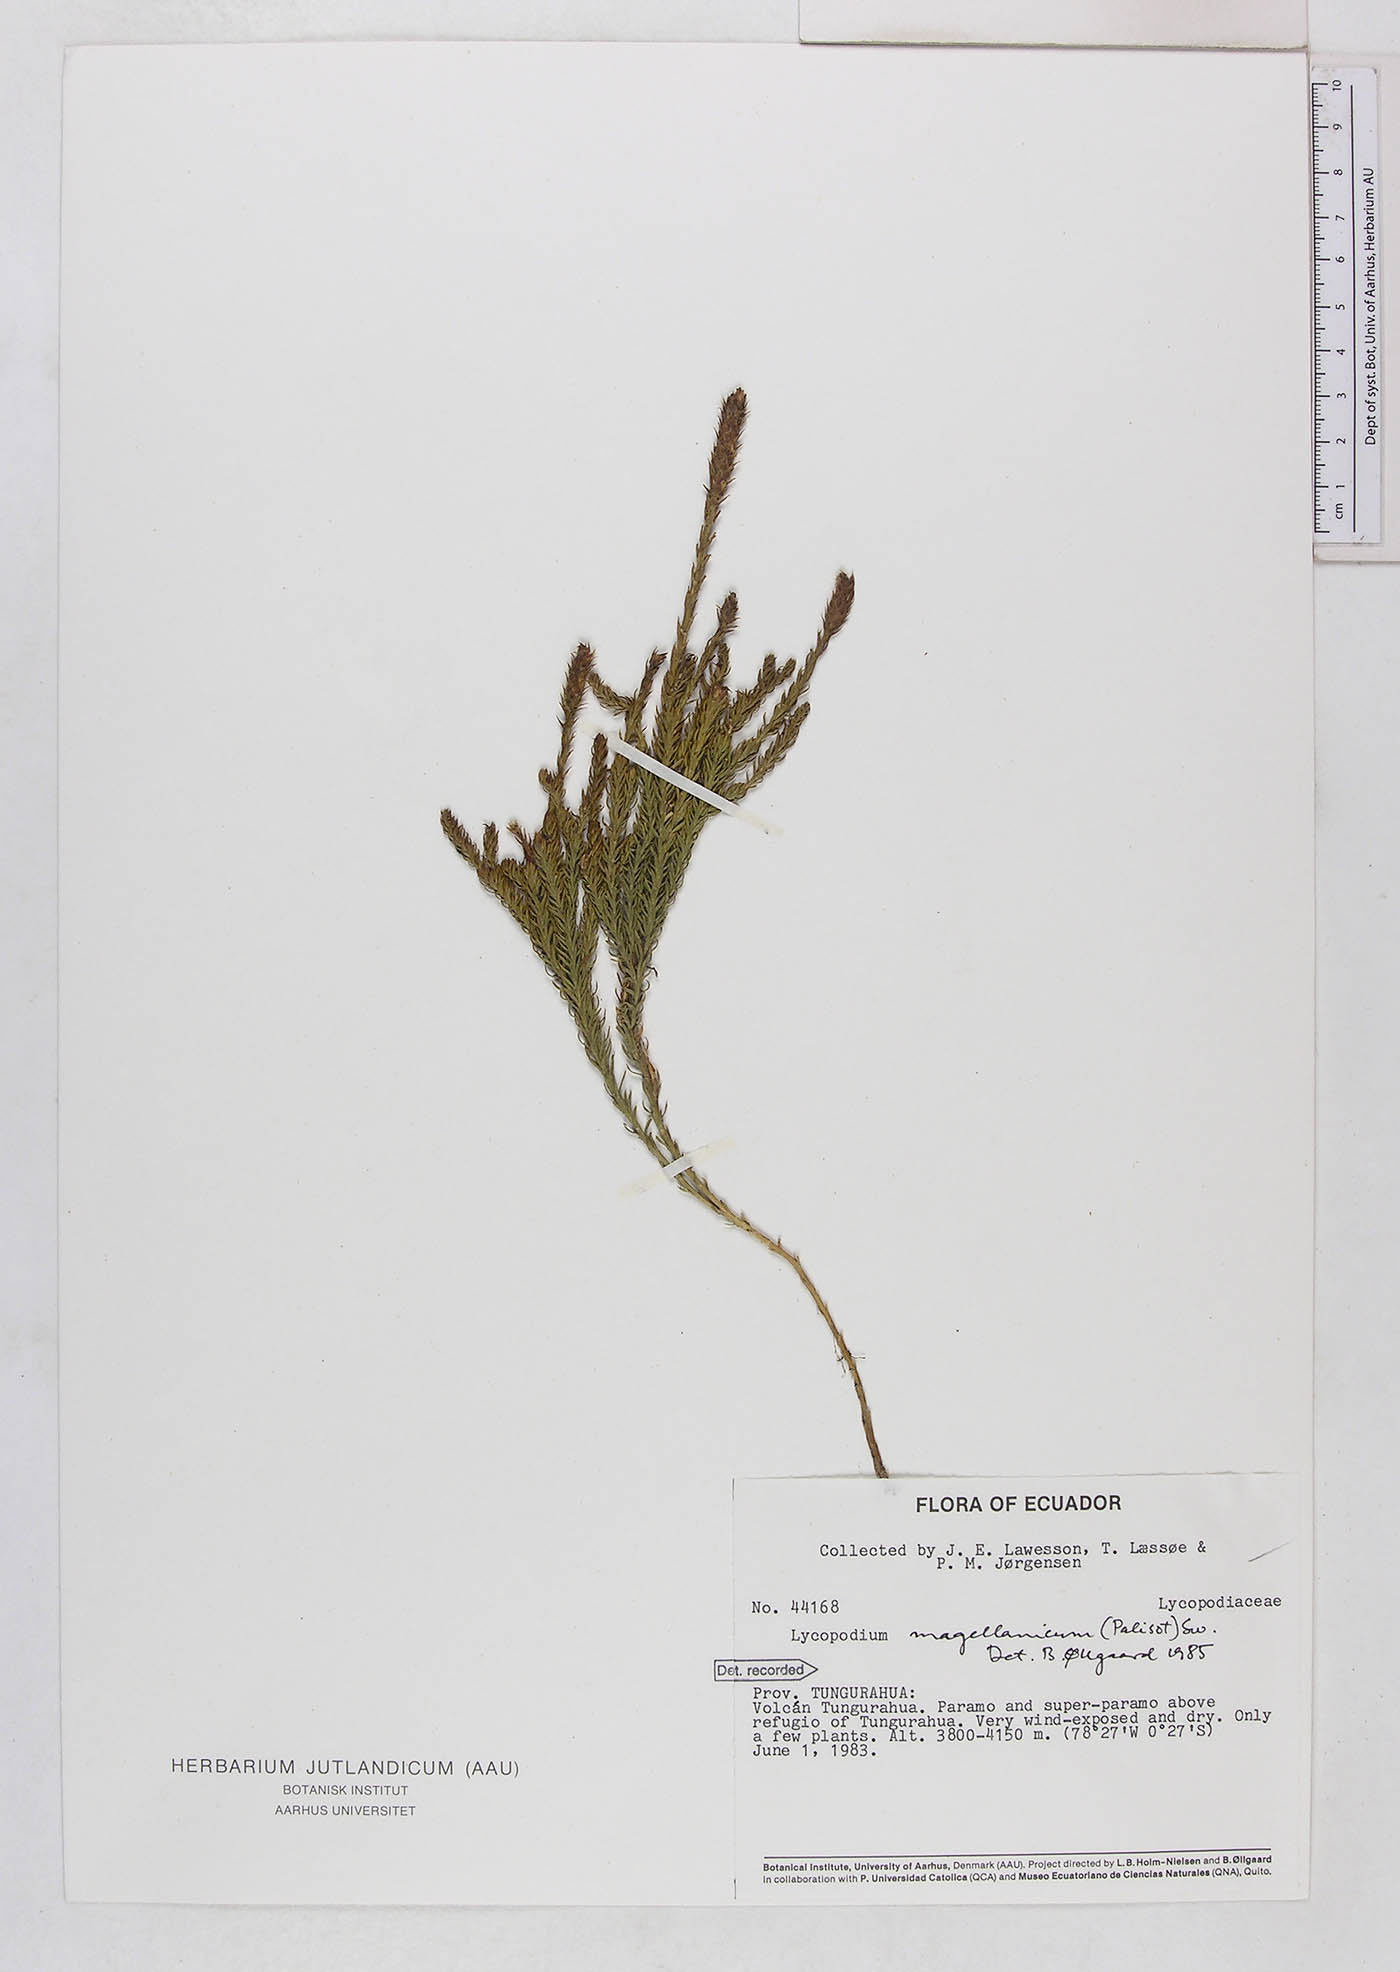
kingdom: Plantae
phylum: Tracheophyta
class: Lycopodiopsida
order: Lycopodiales
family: Lycopodiaceae
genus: Austrolycopodium
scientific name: Austrolycopodium magellanicum
